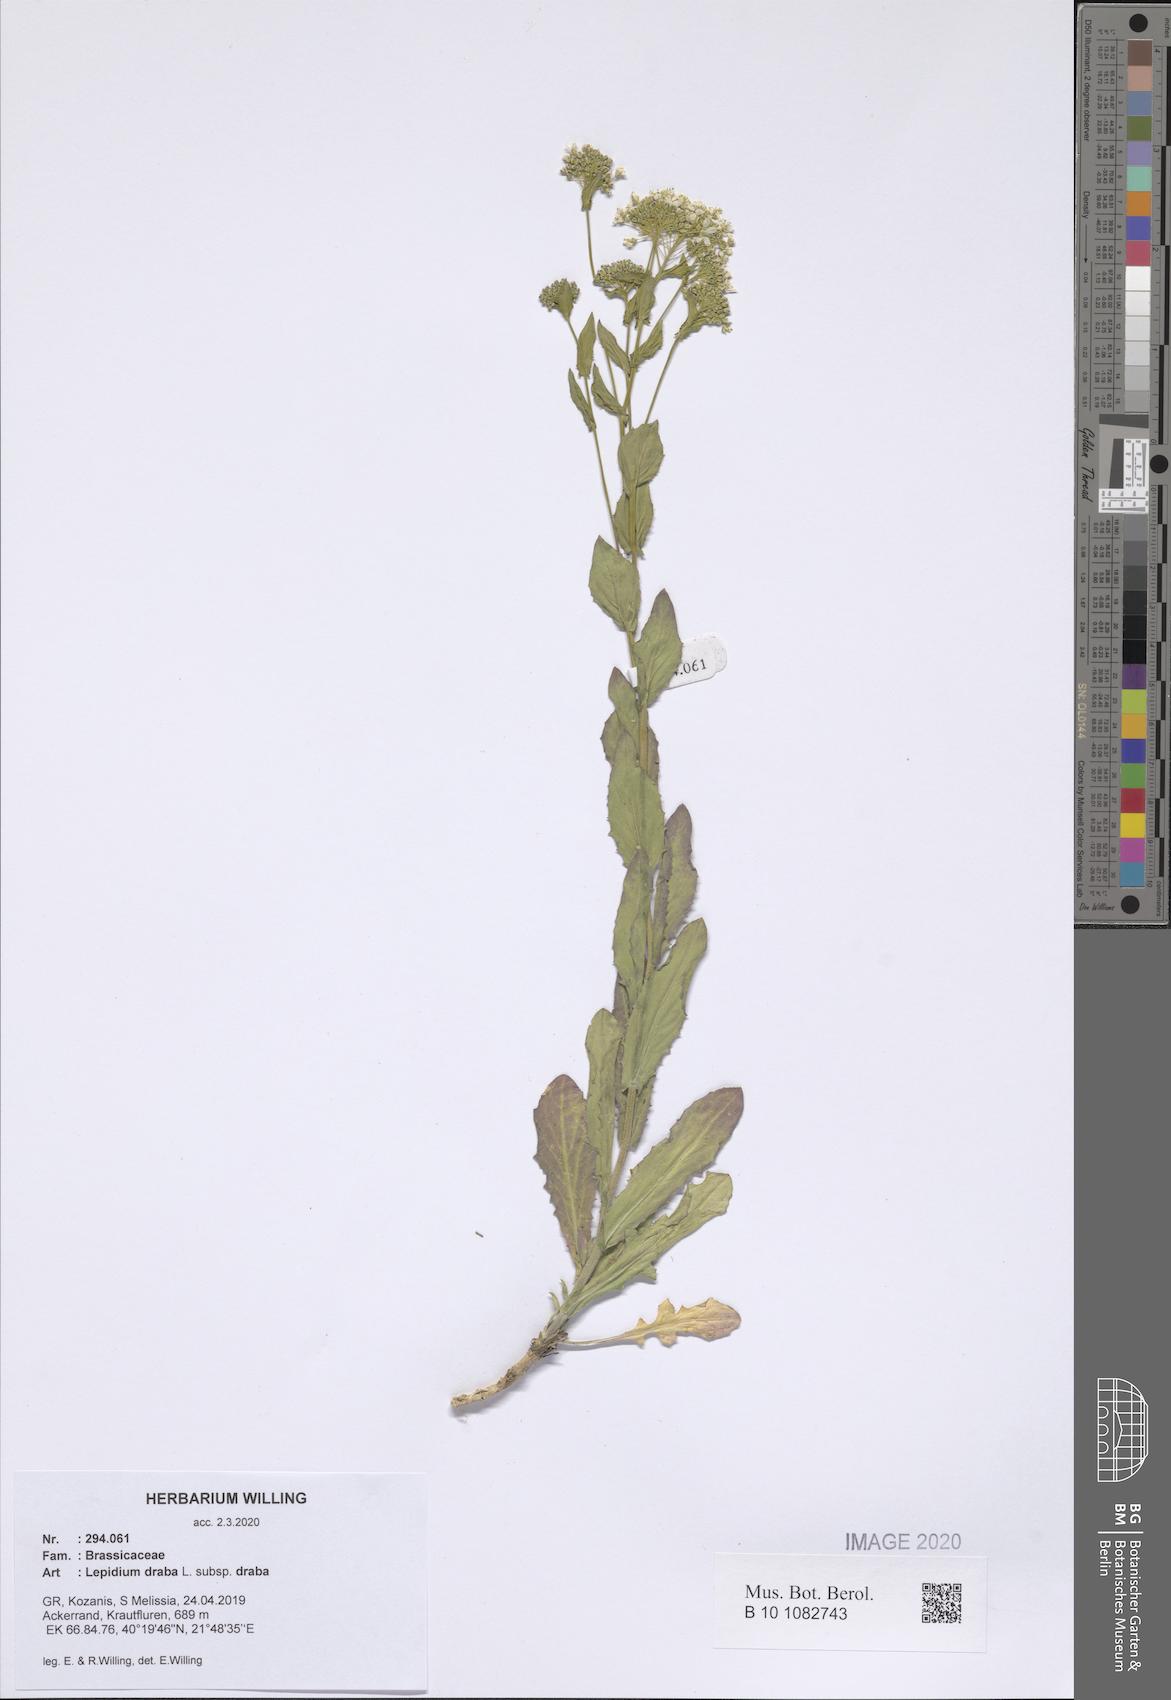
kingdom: Plantae
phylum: Tracheophyta
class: Magnoliopsida
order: Brassicales
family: Brassicaceae
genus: Lepidium
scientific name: Lepidium draba
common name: Hoary cress
